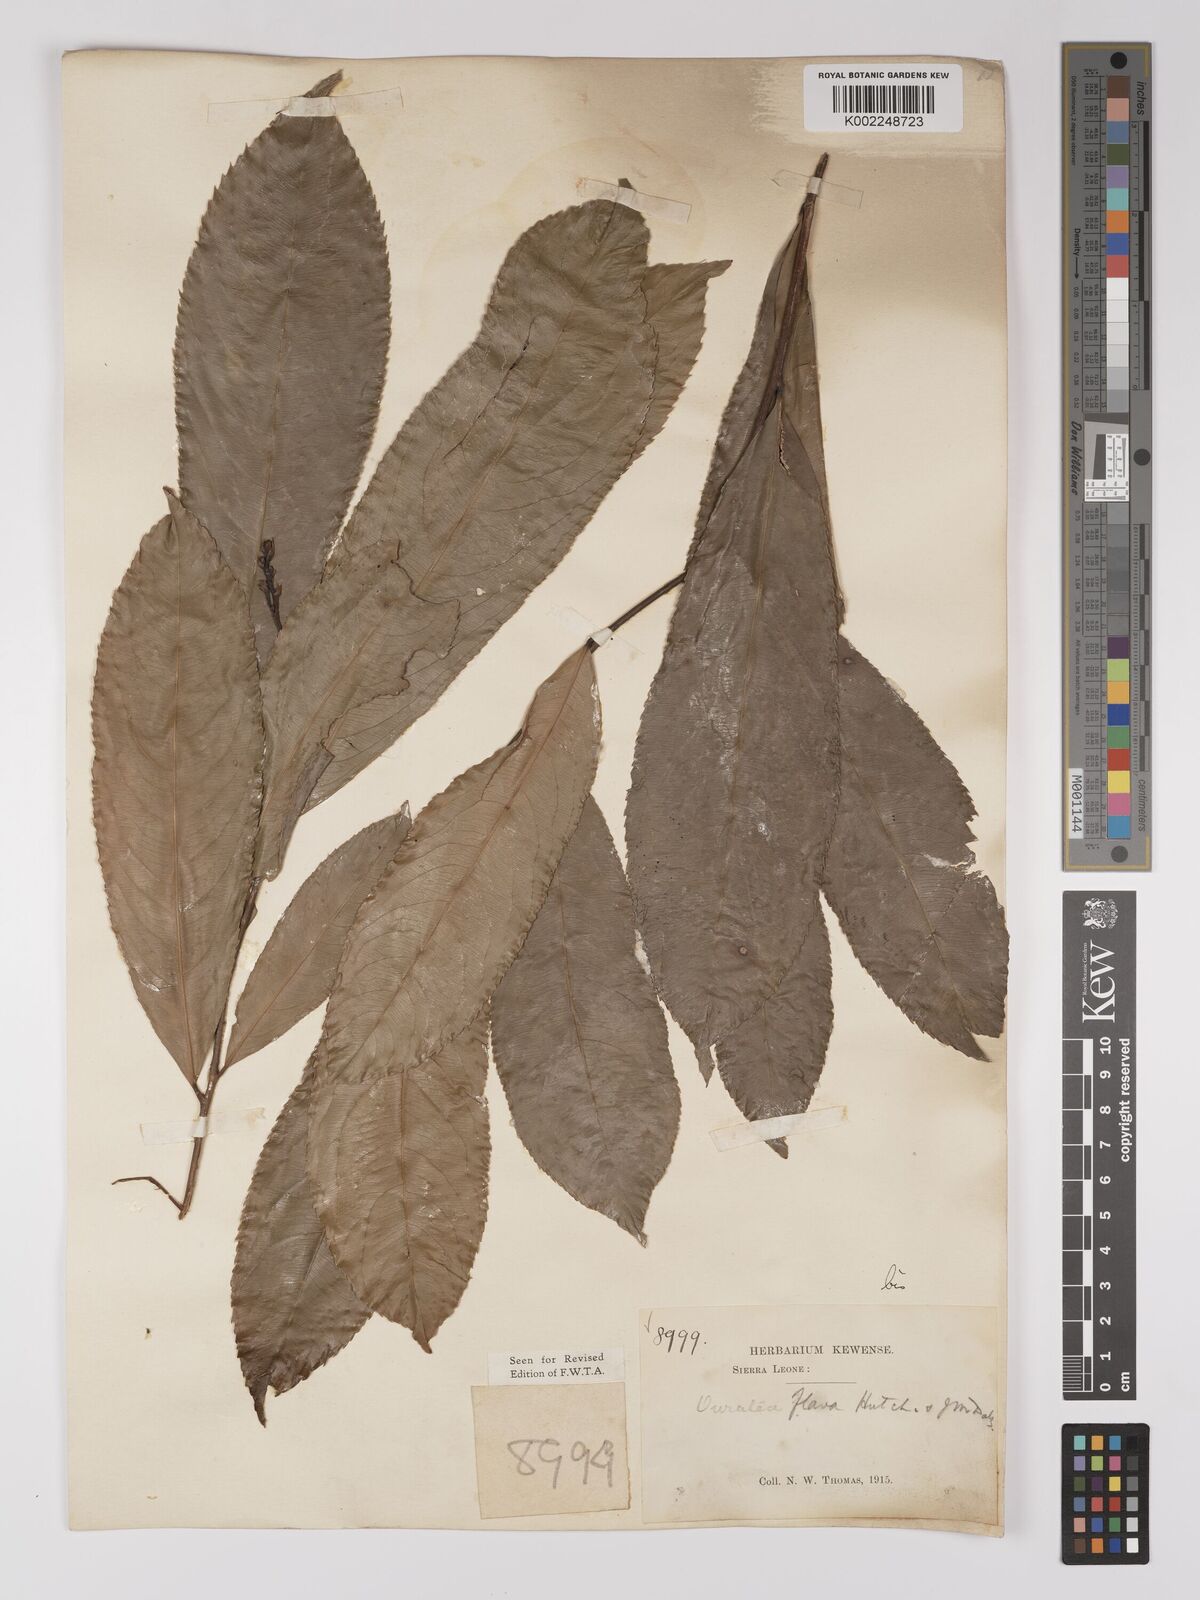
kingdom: Plantae
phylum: Tracheophyta
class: Magnoliopsida
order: Malpighiales
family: Ochnaceae
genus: Campylospermum
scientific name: Campylospermum flavum
